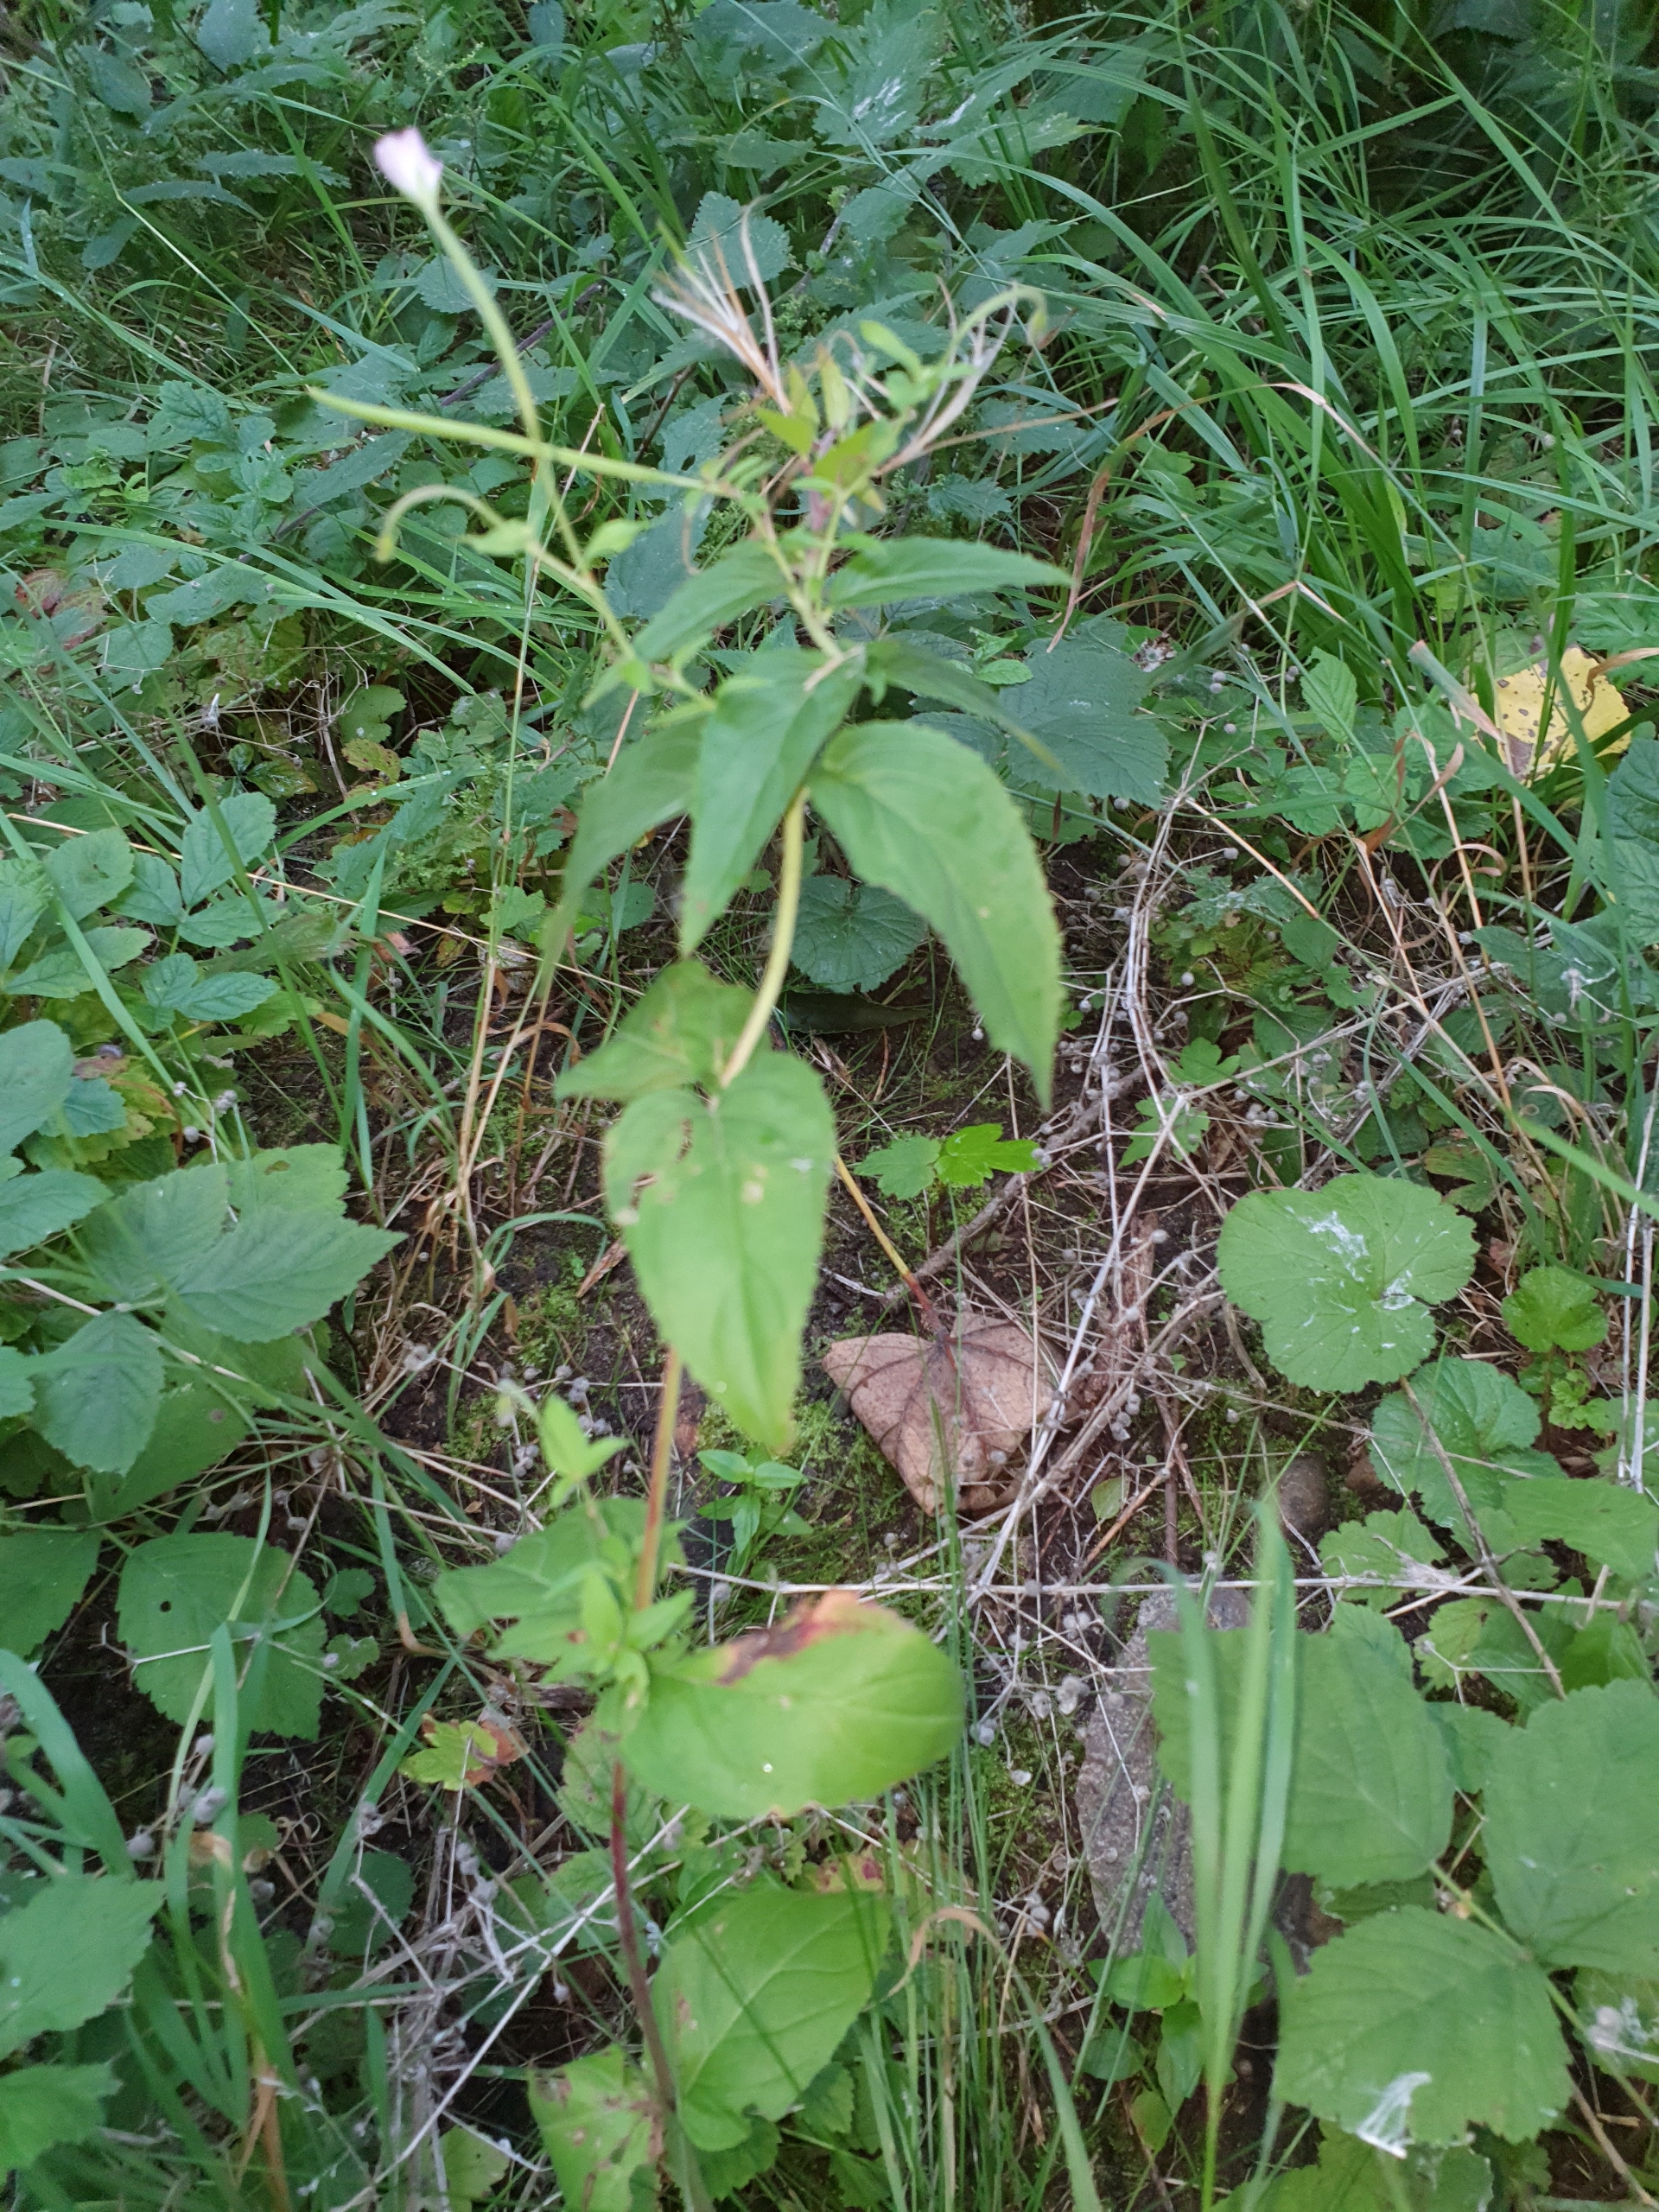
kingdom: Plantae
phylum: Tracheophyta
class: Magnoliopsida
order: Myrtales
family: Onagraceae
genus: Epilobium
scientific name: Epilobium montanum
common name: Glat dueurt
